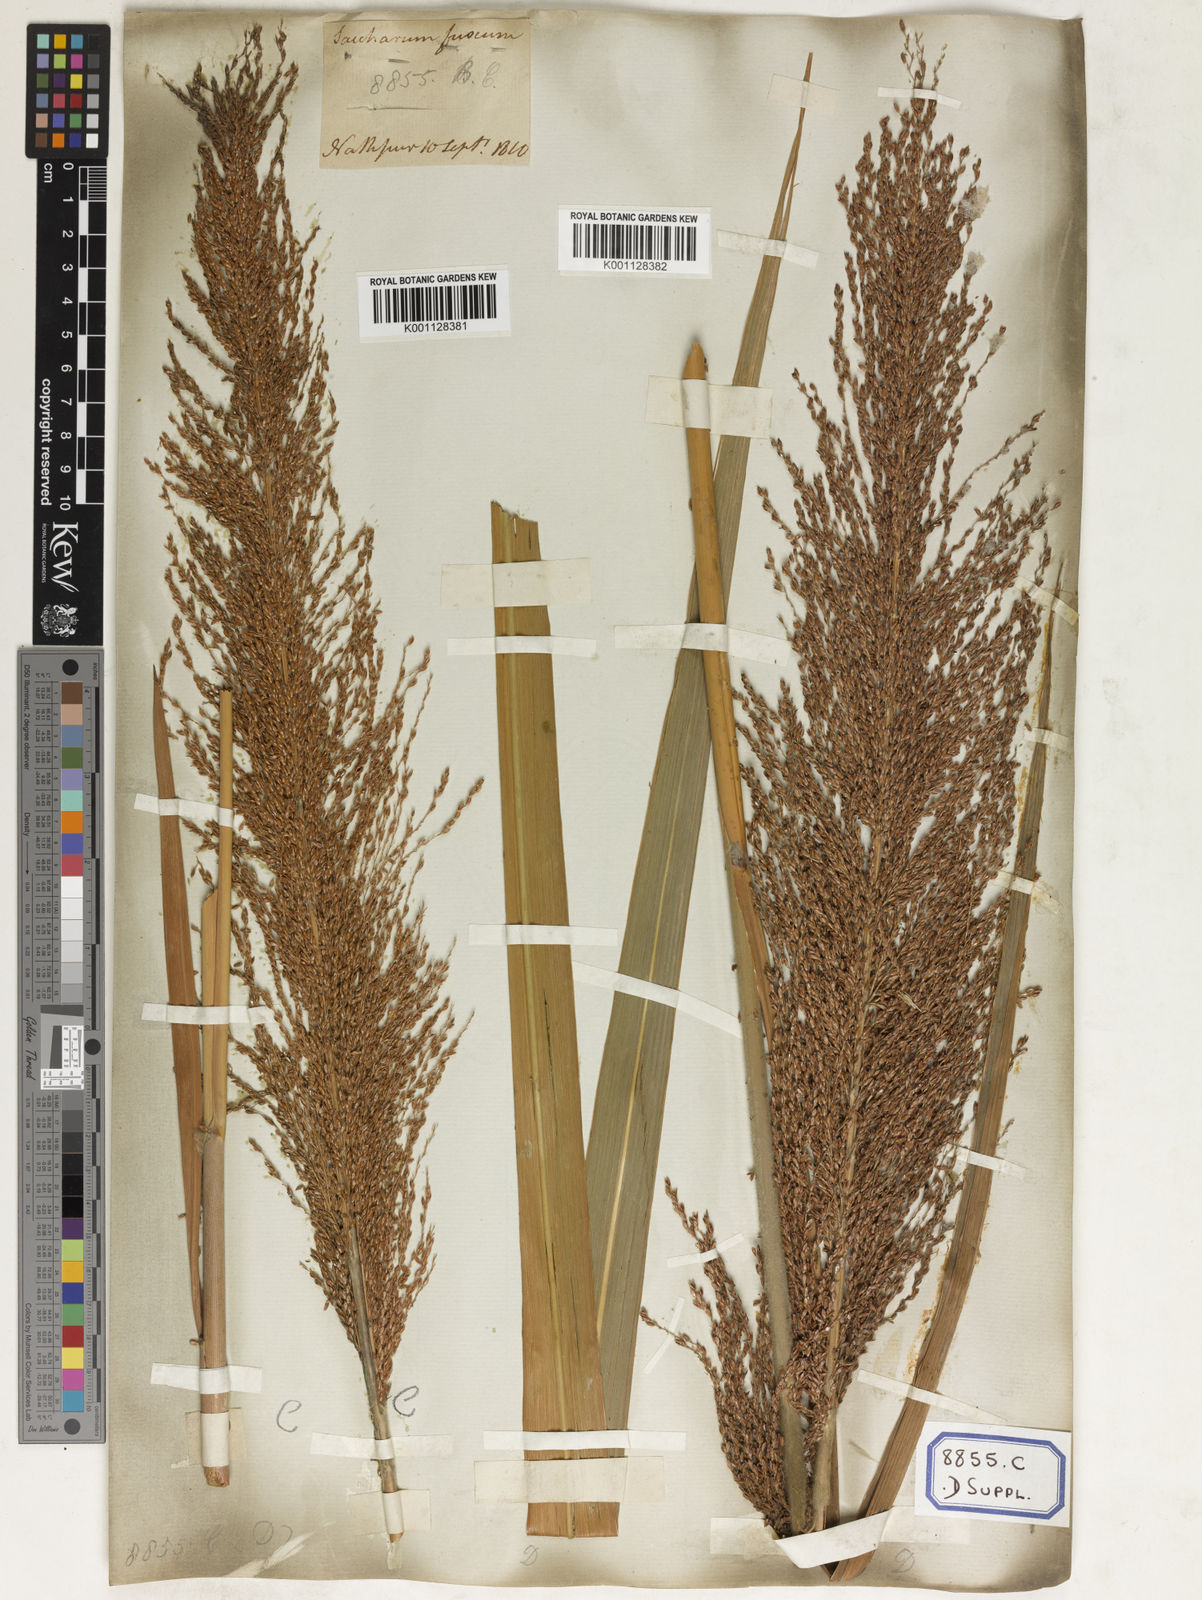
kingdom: Plantae
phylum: Tracheophyta
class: Liliopsida
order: Poales
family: Poaceae
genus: Saccharum
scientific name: Saccharum
